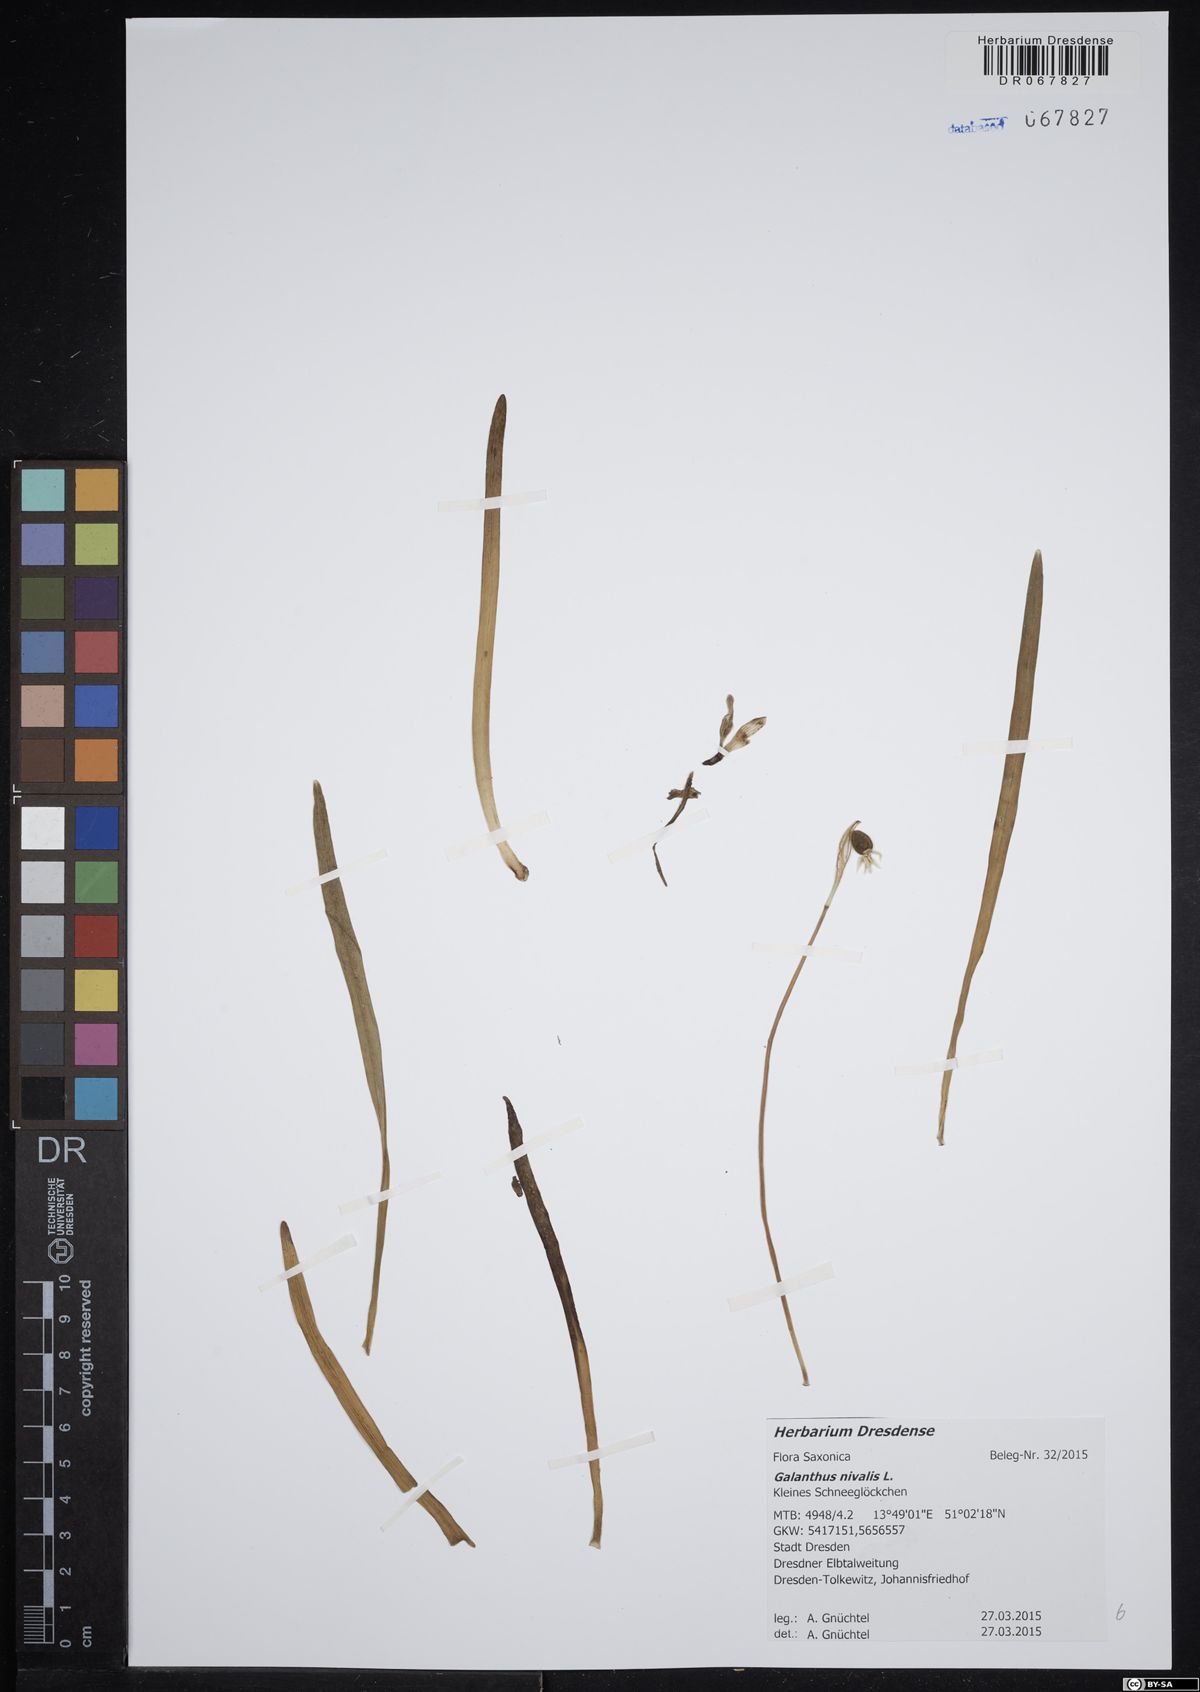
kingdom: Plantae
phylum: Tracheophyta
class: Liliopsida
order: Asparagales
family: Amaryllidaceae
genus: Galanthus
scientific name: Galanthus nivalis
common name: Snowdrop
